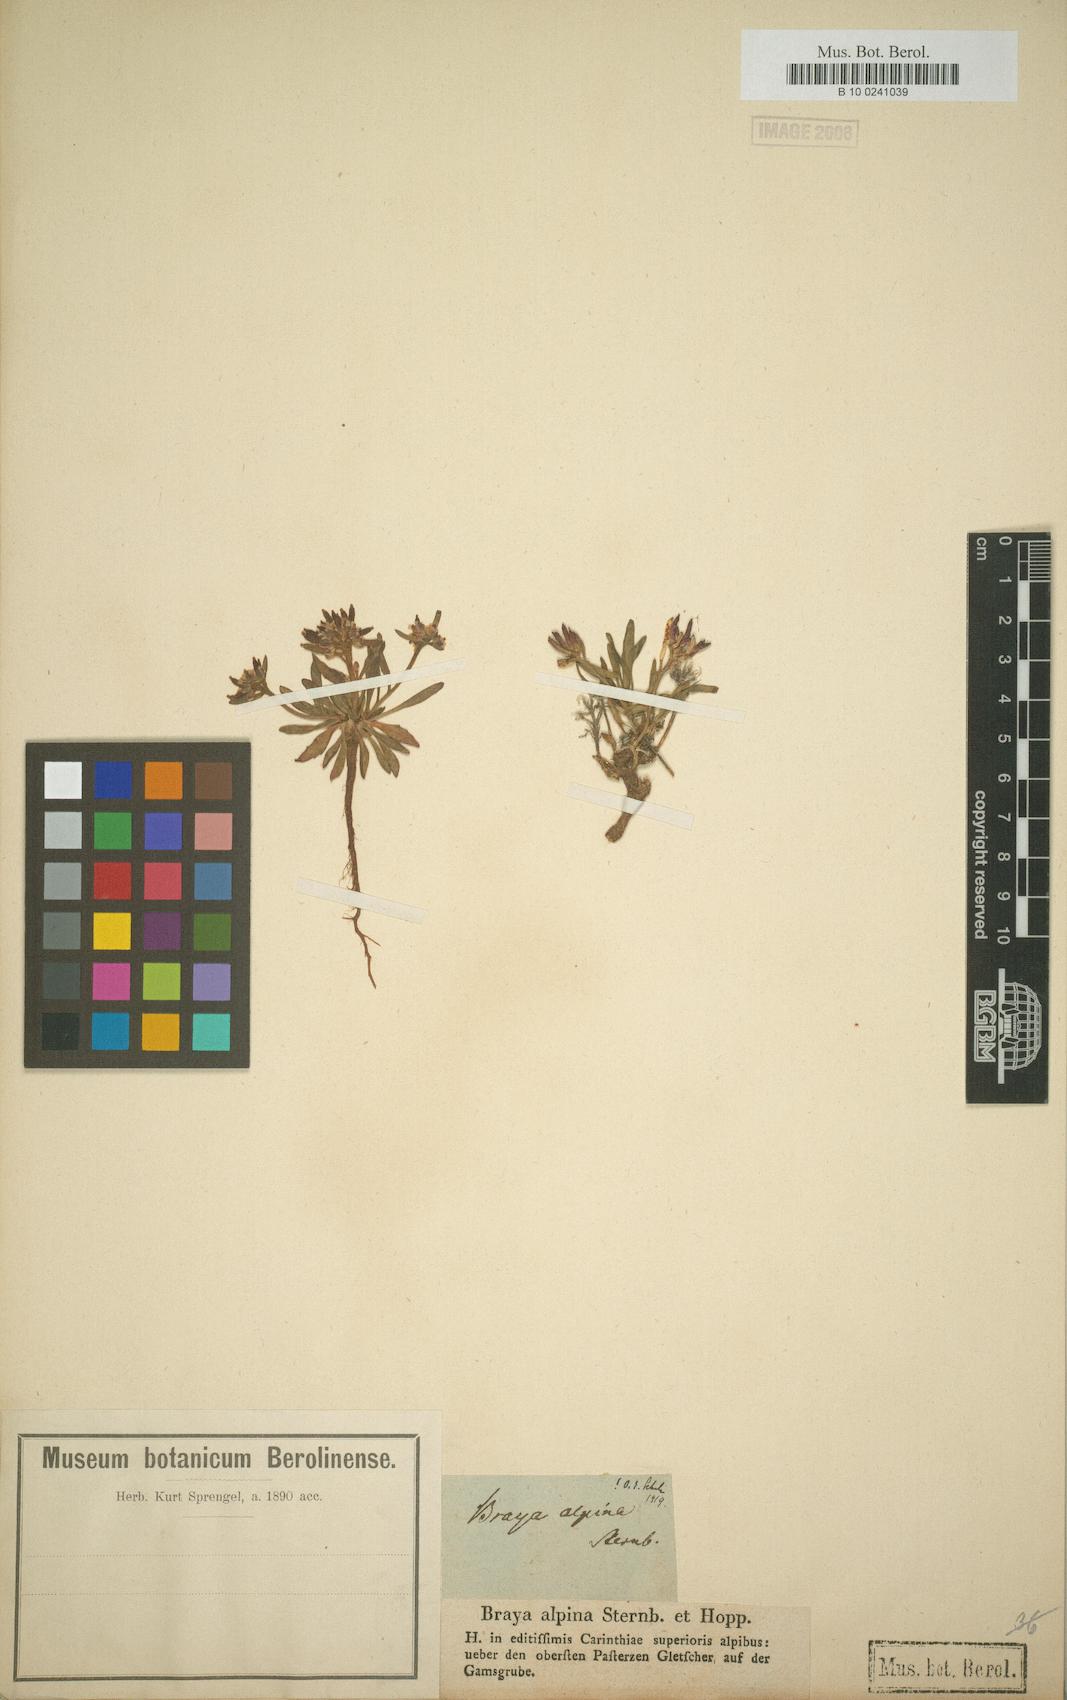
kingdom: Plantae
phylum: Tracheophyta
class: Magnoliopsida
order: Brassicales
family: Brassicaceae
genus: Braya
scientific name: Braya alpina
